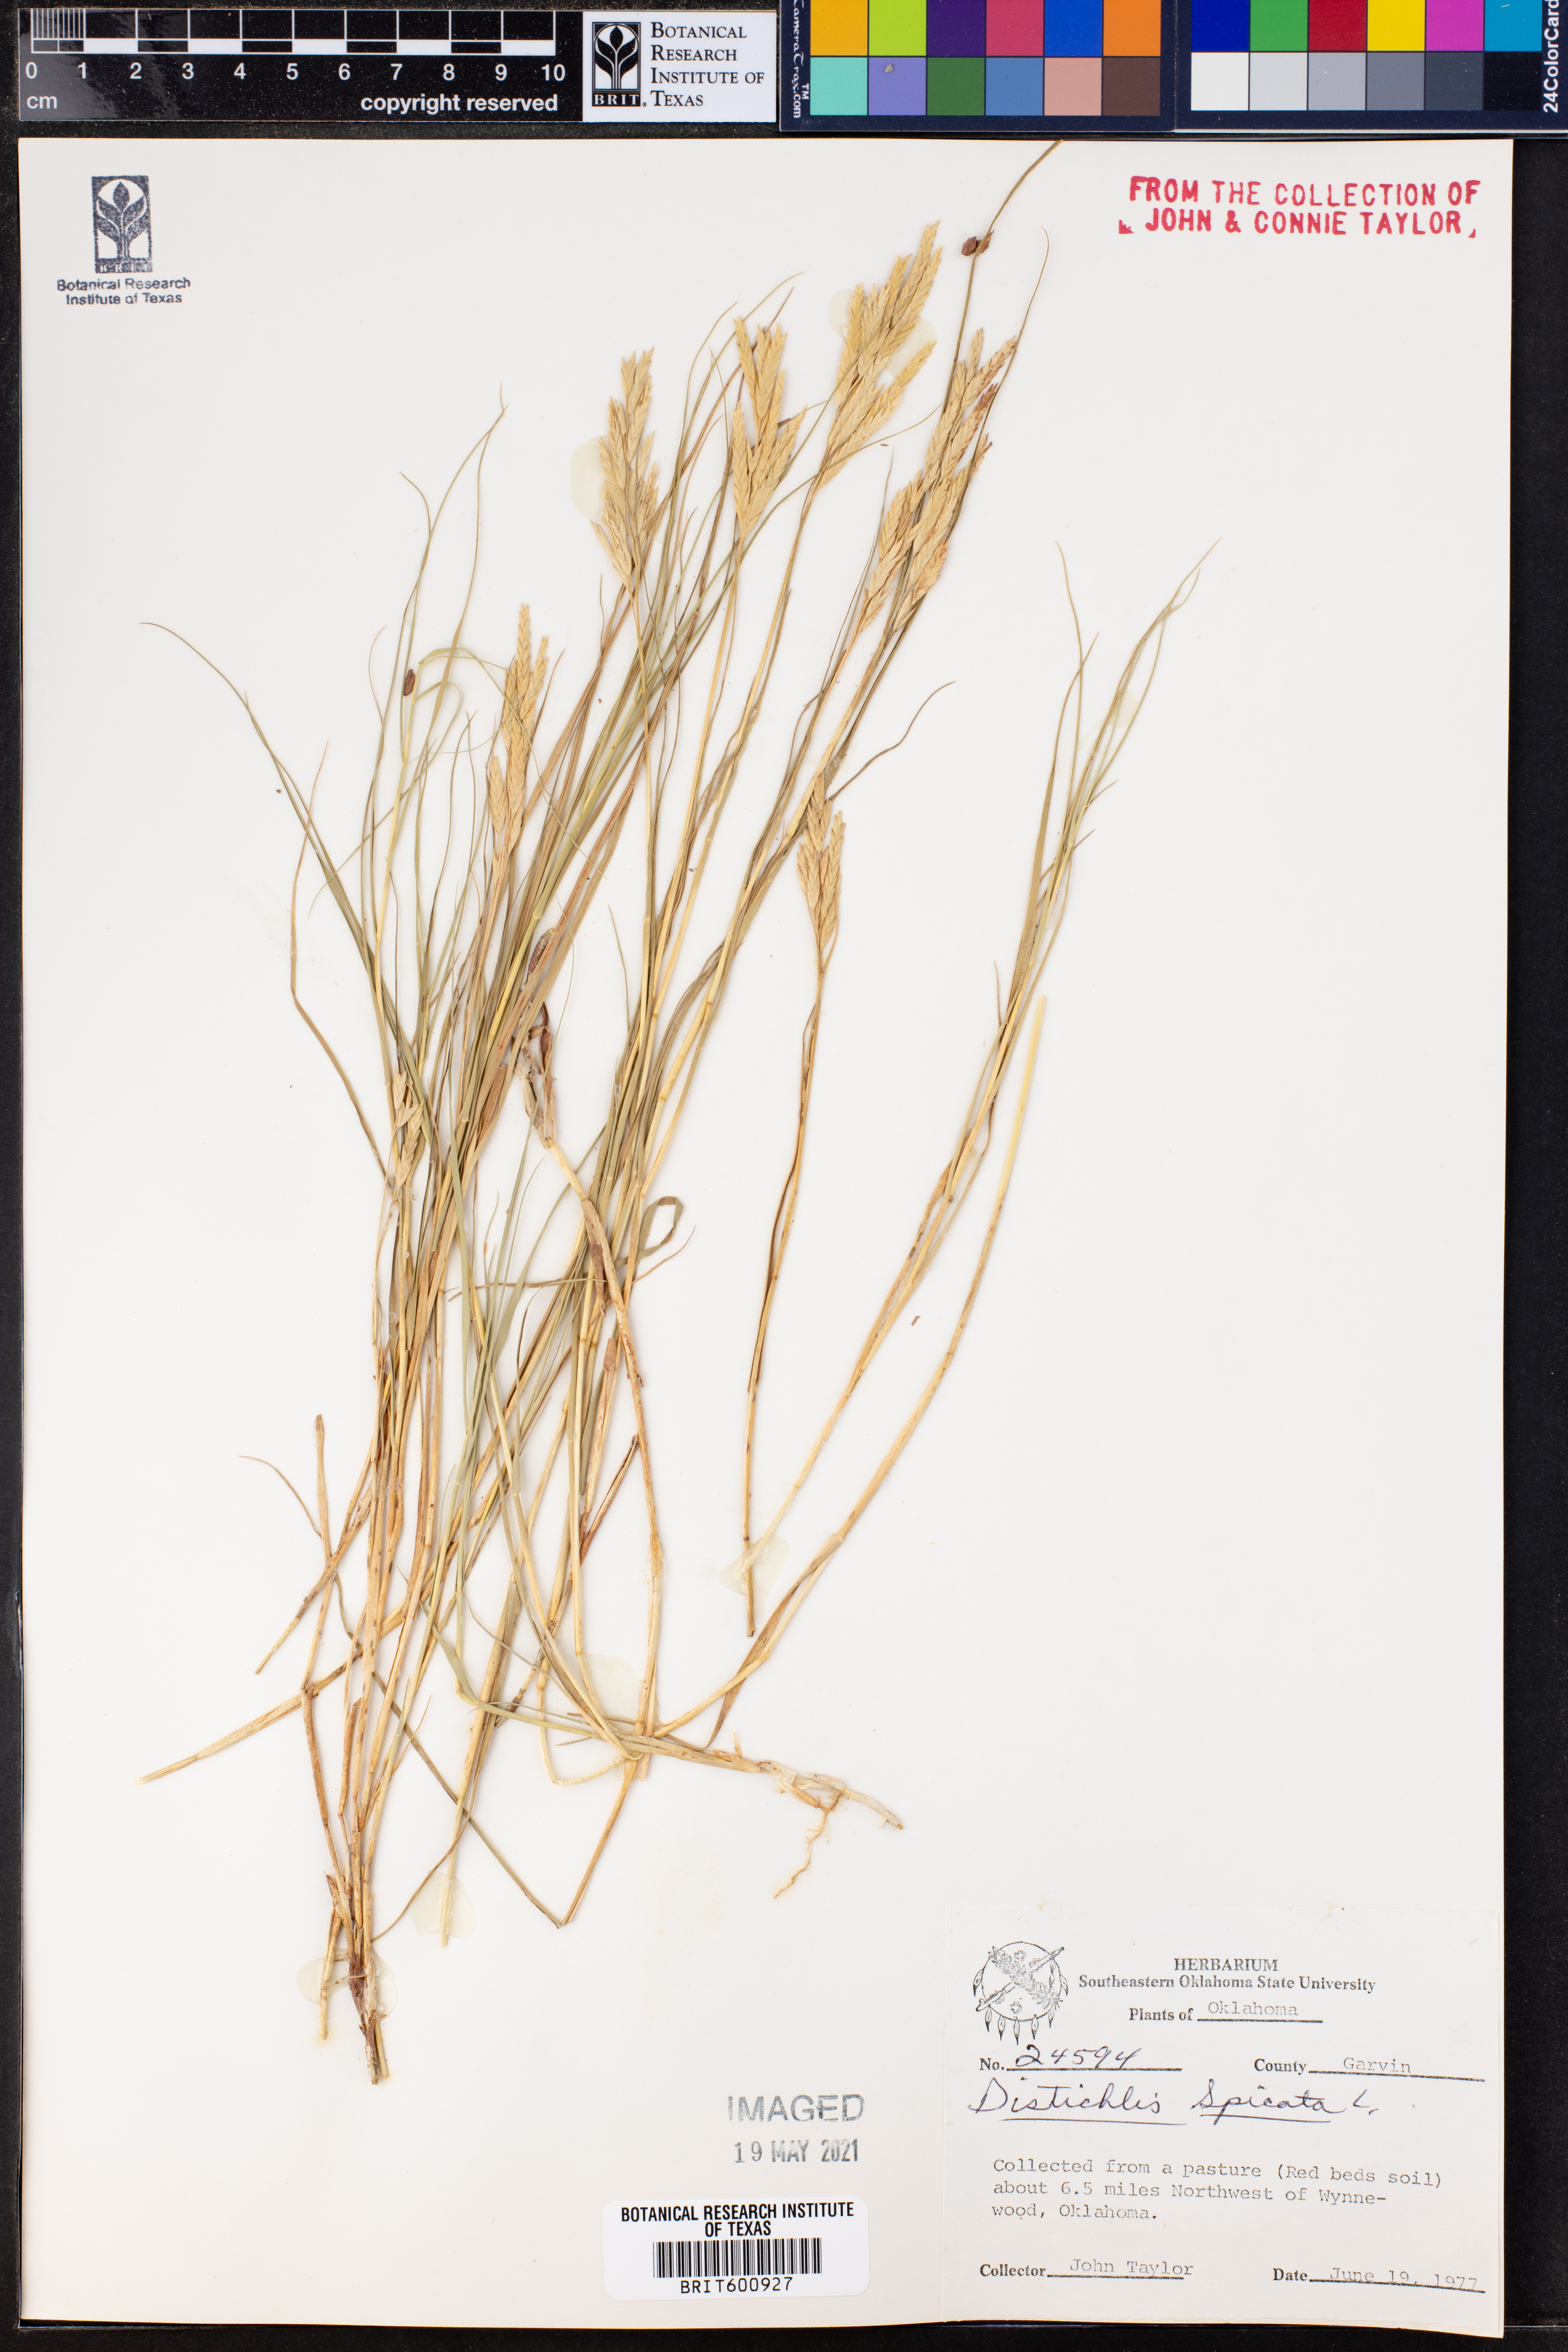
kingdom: Plantae
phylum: Tracheophyta
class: Liliopsida
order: Poales
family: Poaceae
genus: Distichlis
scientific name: Distichlis spicata
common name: Saltgrass
